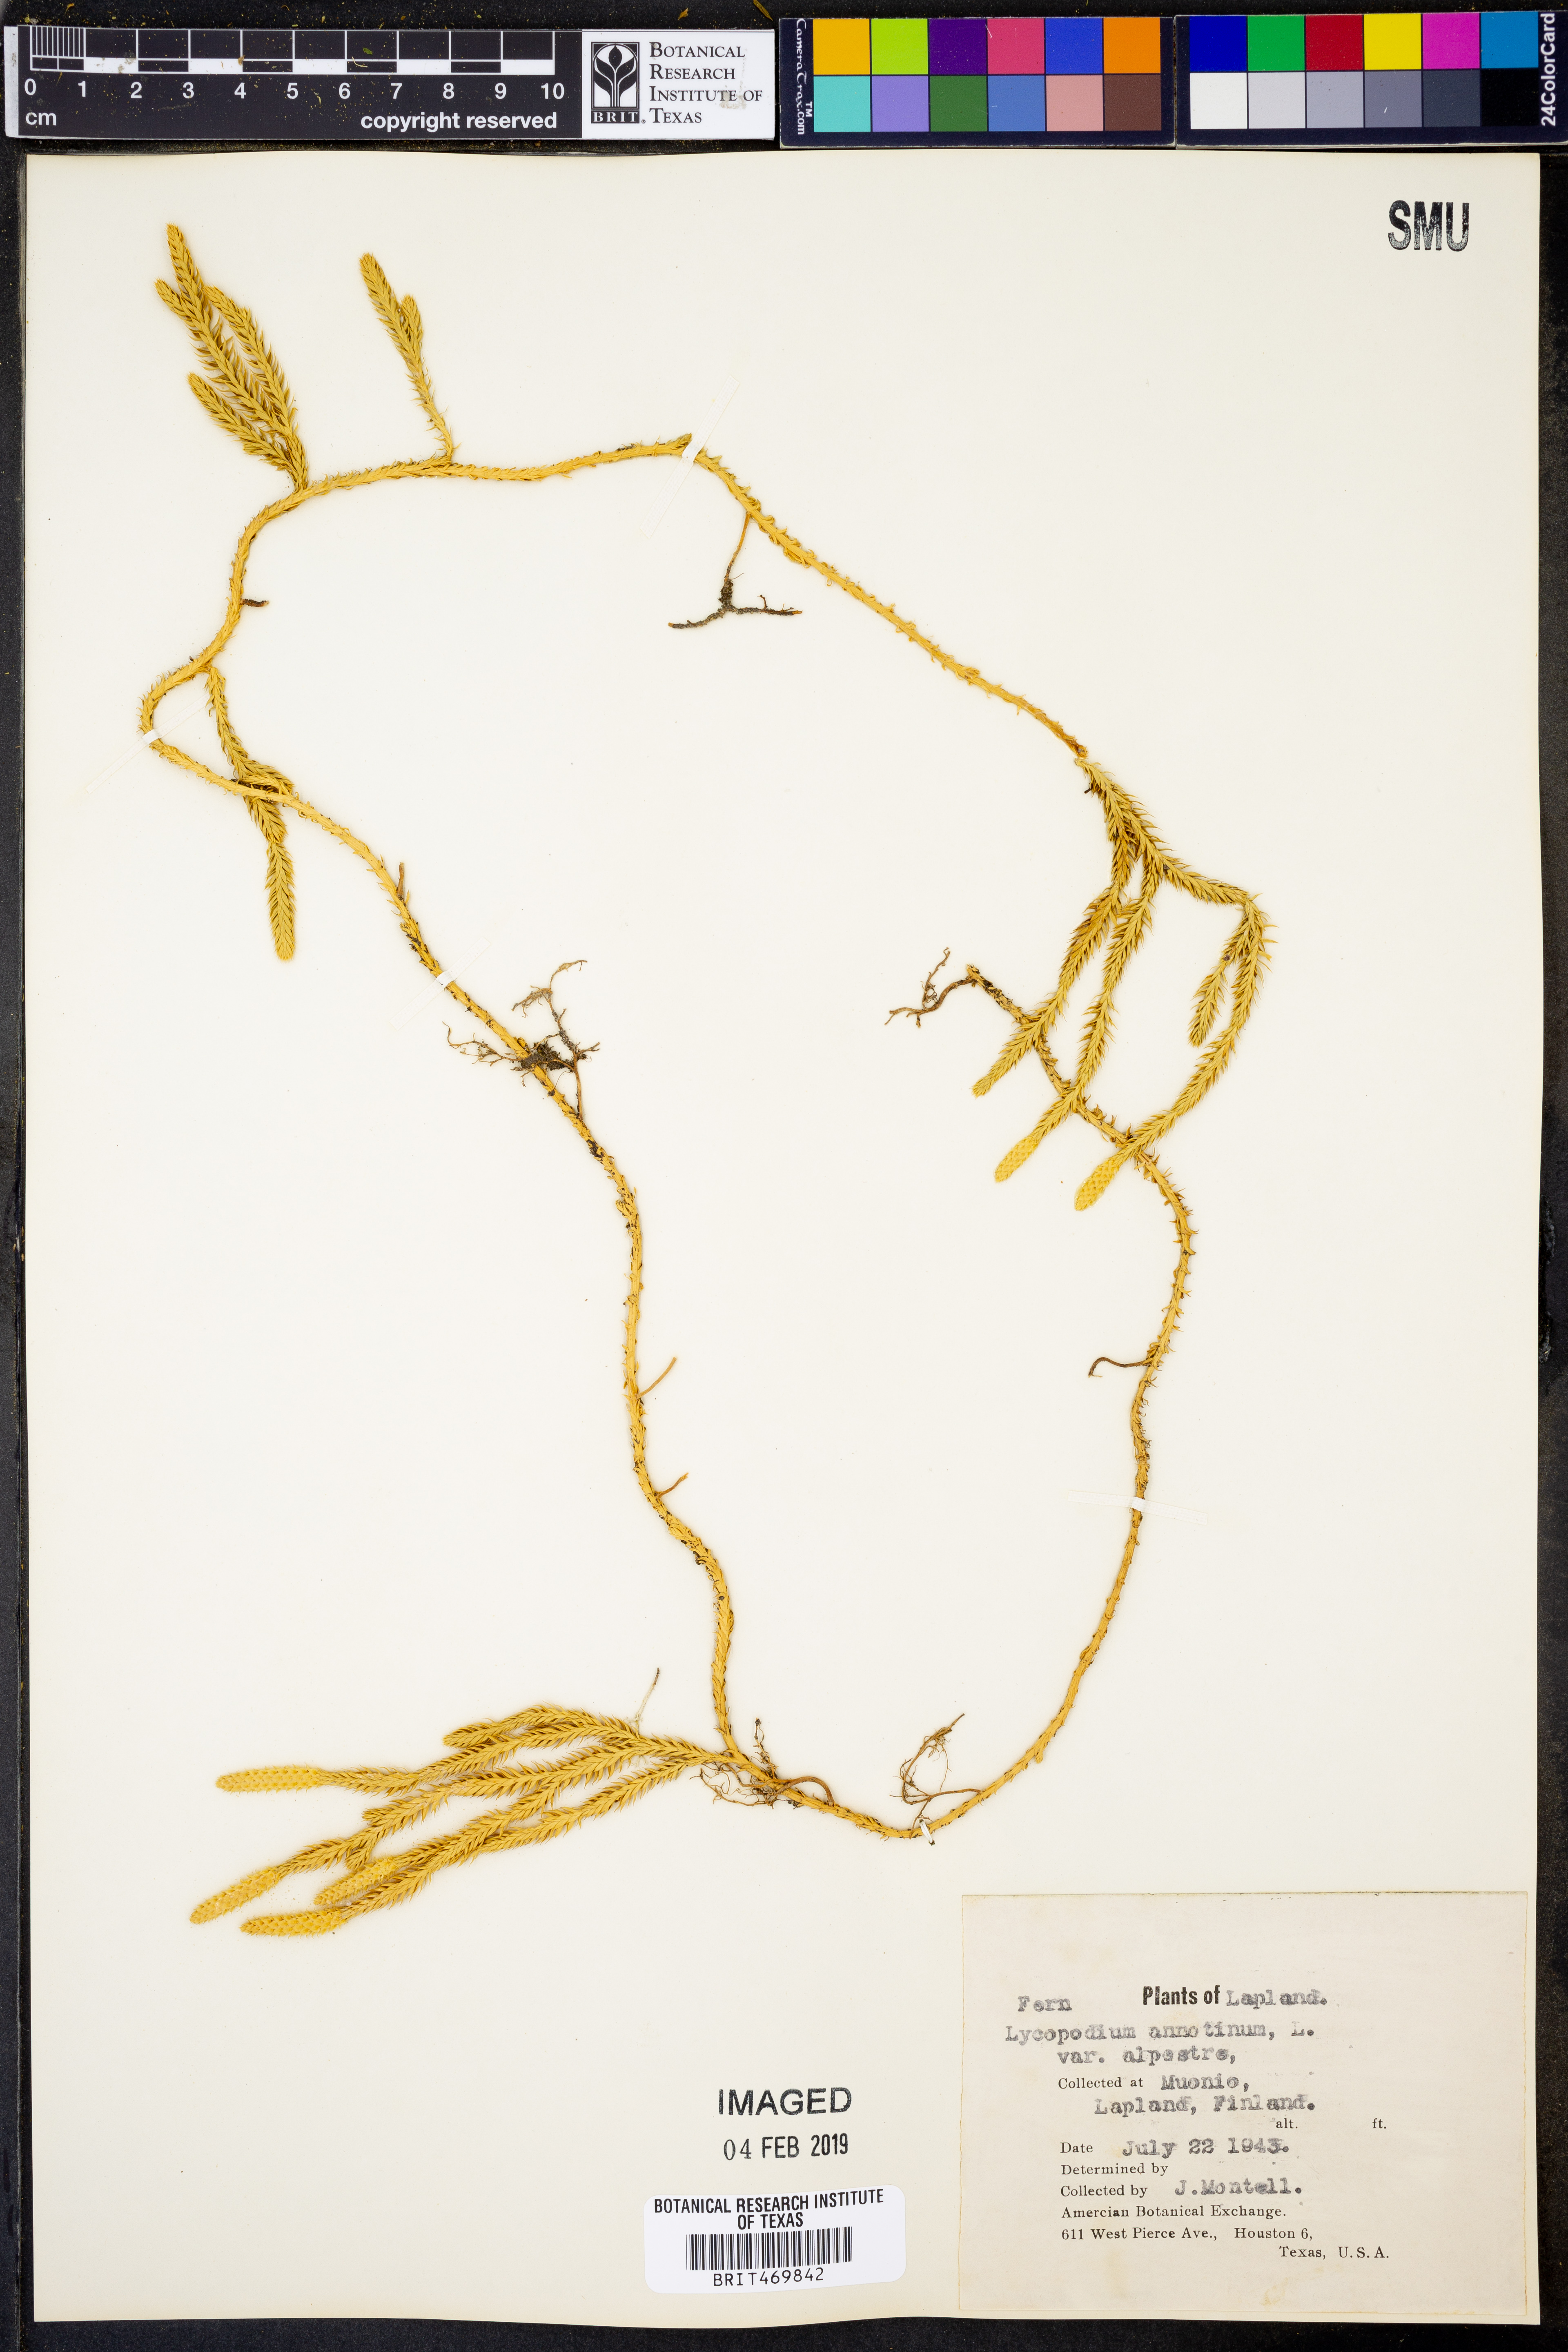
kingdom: Plantae
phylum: Tracheophyta
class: Lycopodiopsida
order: Lycopodiales
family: Lycopodiaceae
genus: Spinulum
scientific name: Spinulum annotinum
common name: Interrupted club-moss
